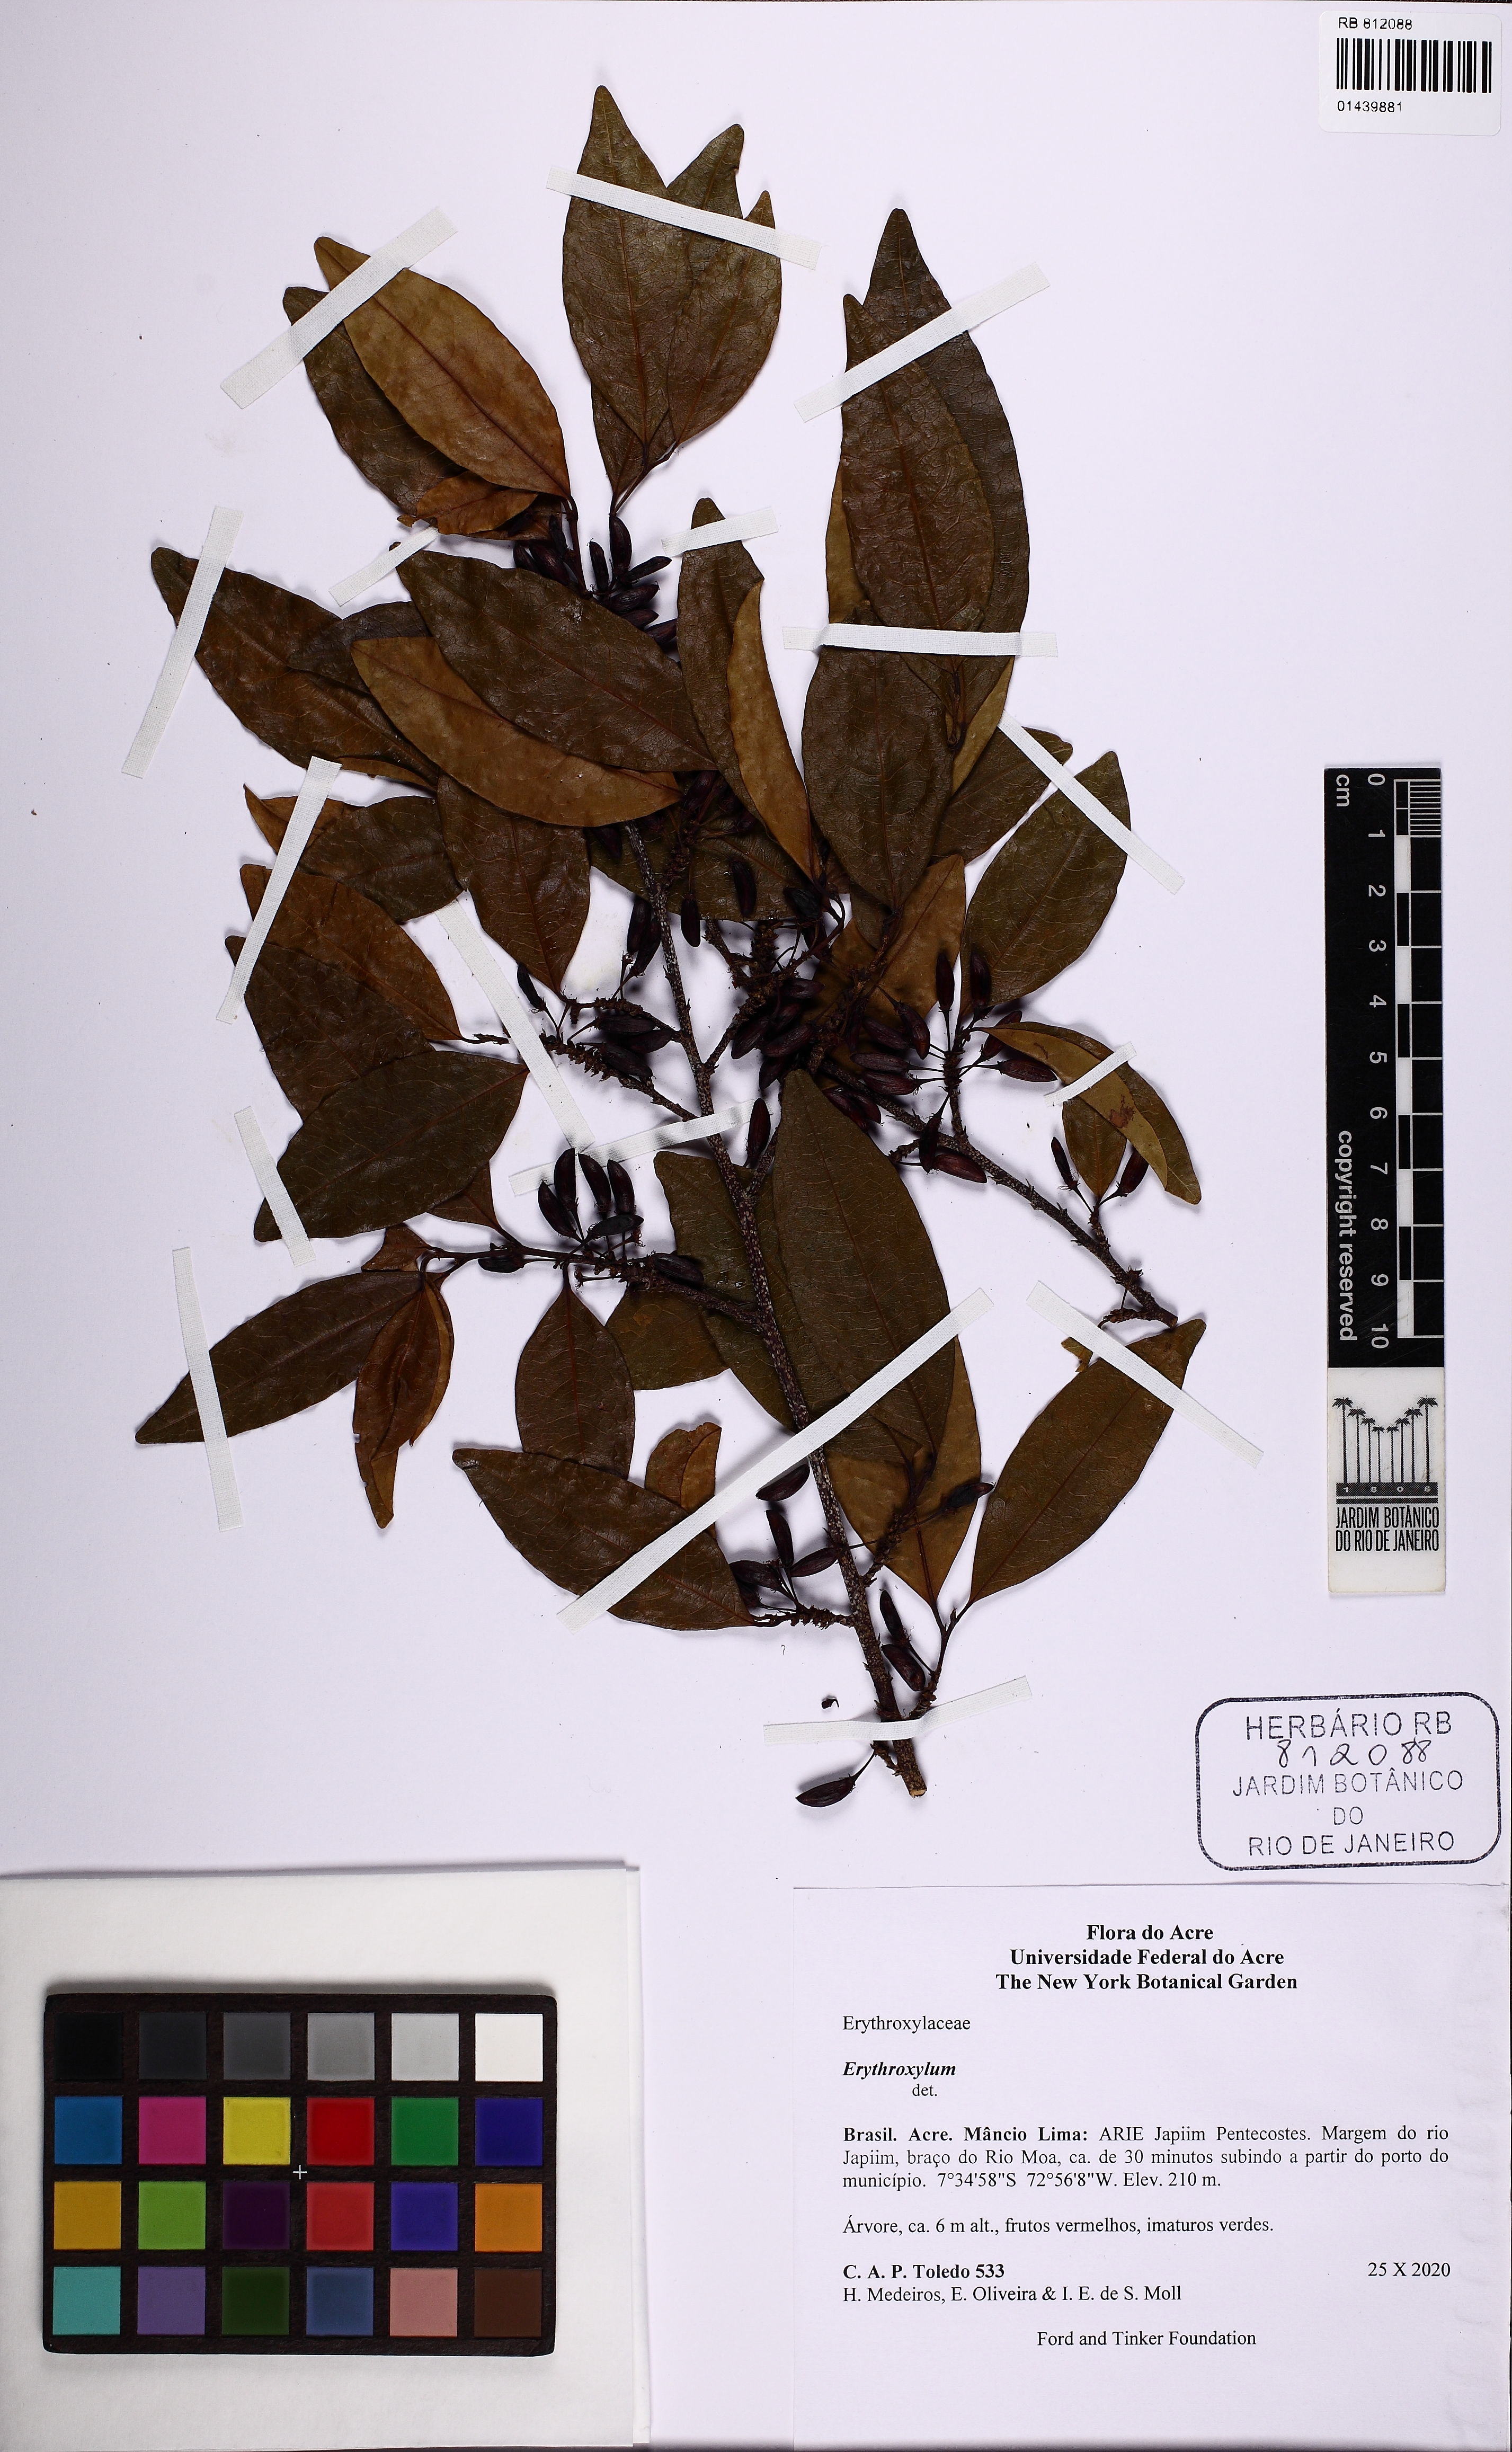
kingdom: Plantae
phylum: Tracheophyta
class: Magnoliopsida
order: Malpighiales
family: Erythroxylaceae
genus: Erythroxylum
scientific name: Erythroxylum
